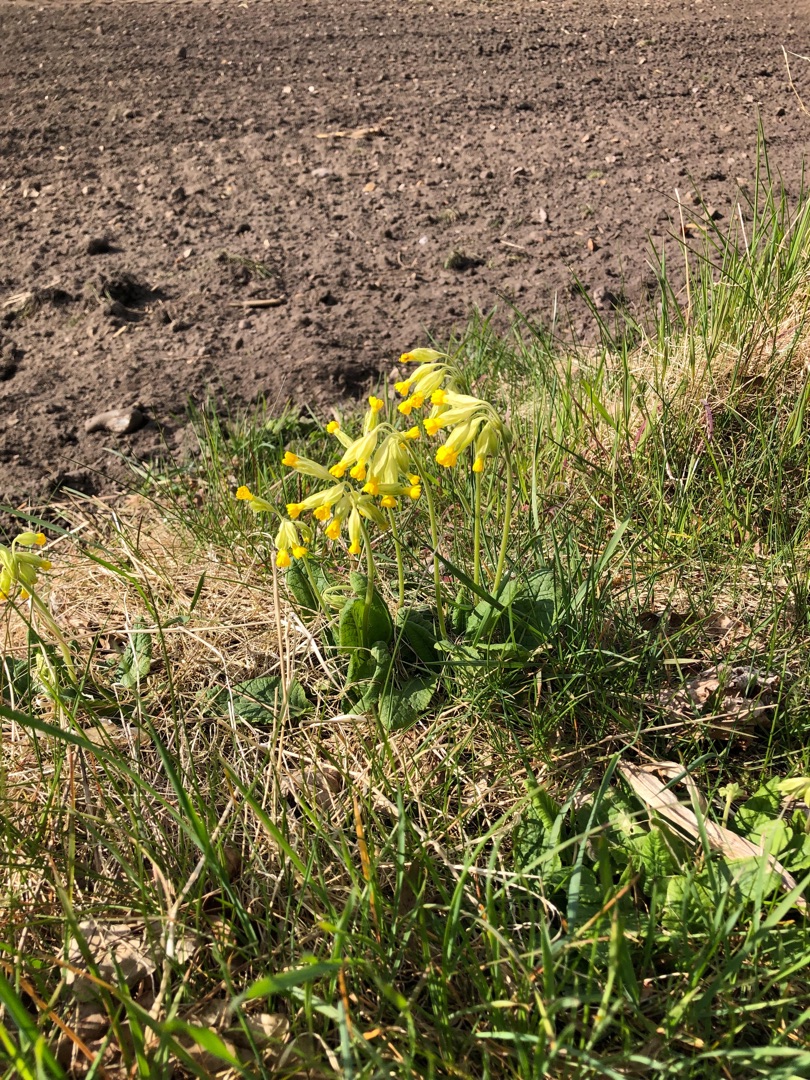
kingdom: Plantae
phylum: Tracheophyta
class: Magnoliopsida
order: Ericales
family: Primulaceae
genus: Primula
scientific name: Primula veris
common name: Hulkravet kodriver
